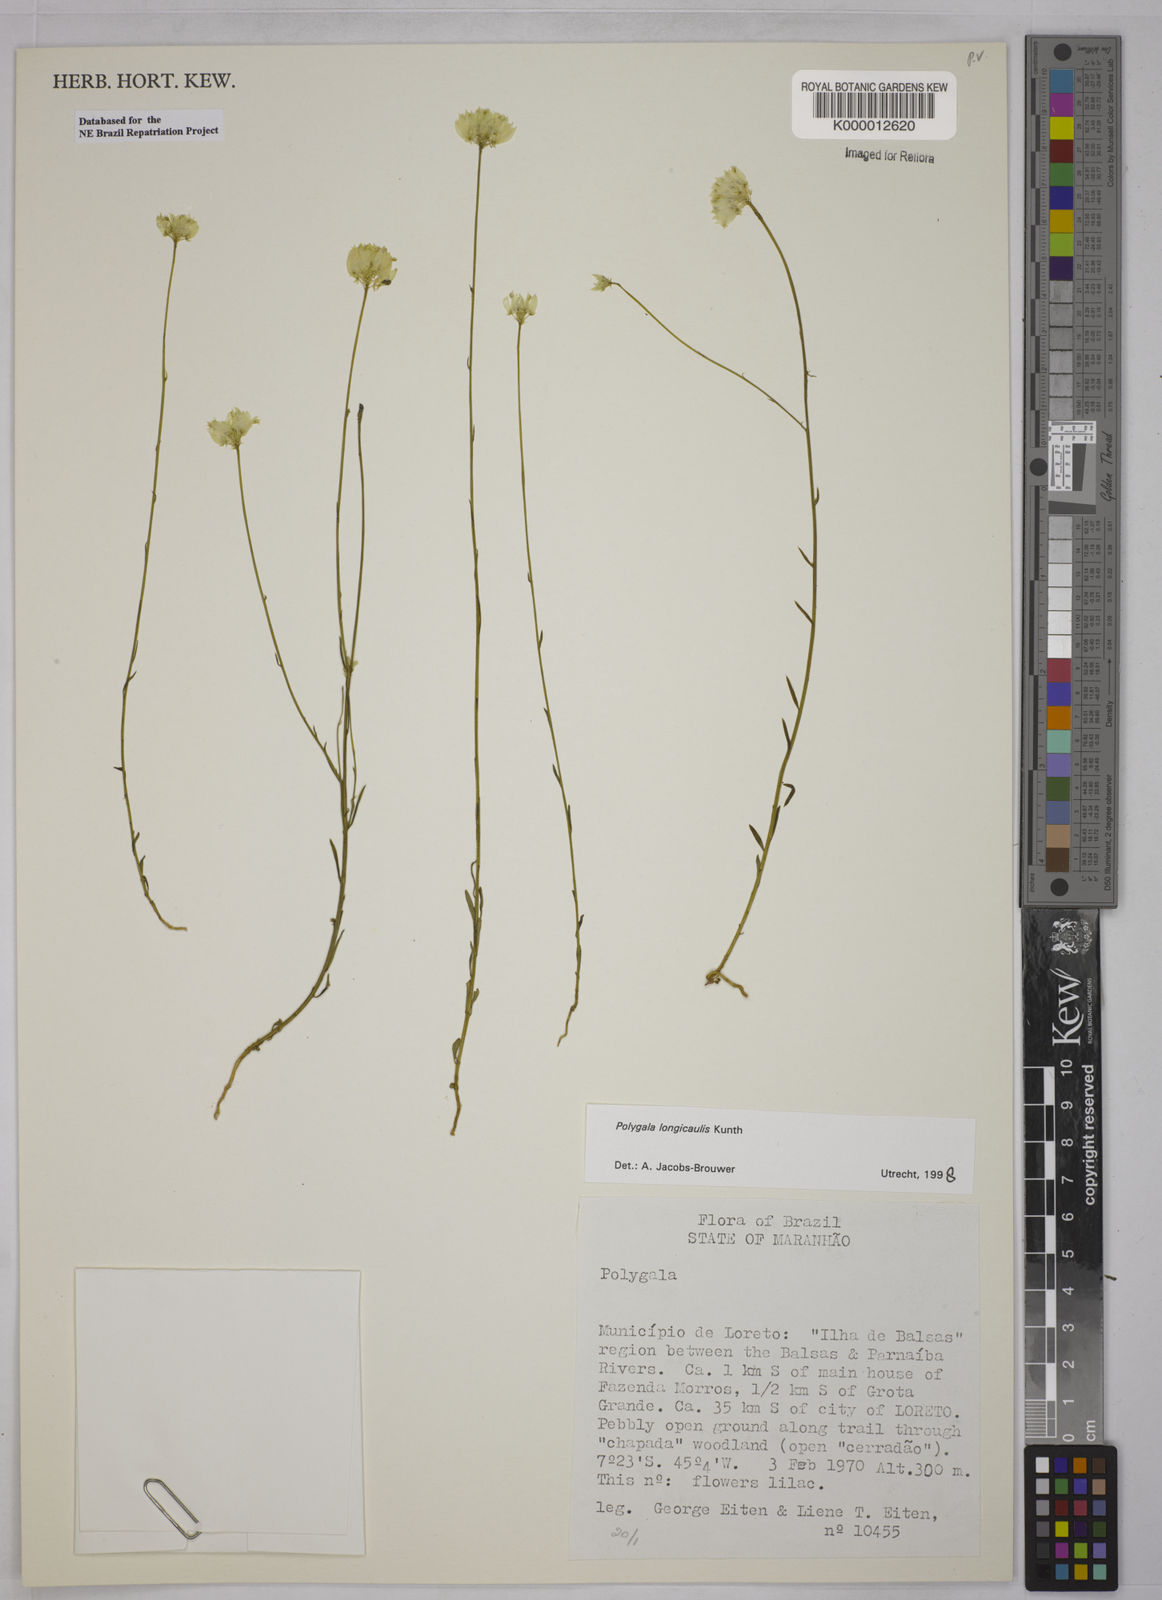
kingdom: Plantae
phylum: Tracheophyta
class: Magnoliopsida
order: Fabales
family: Polygalaceae
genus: Polygala
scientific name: Polygala longicaulis
